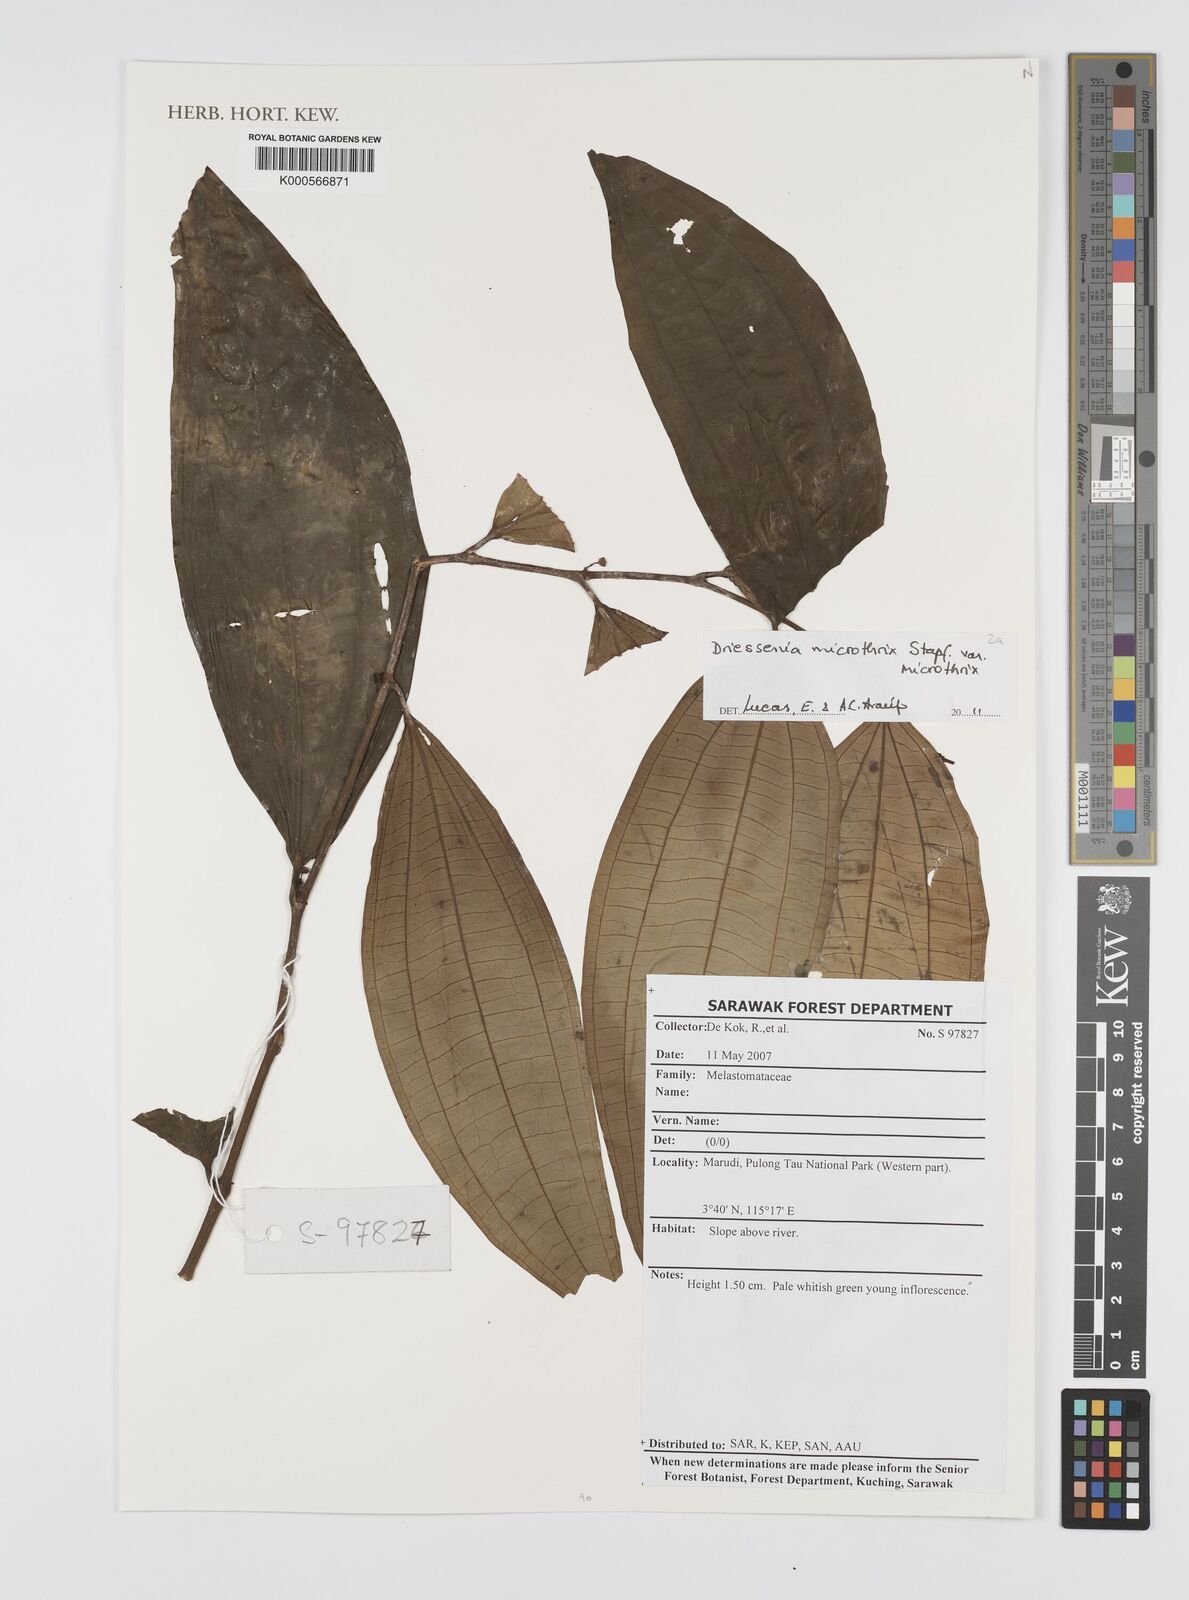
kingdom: Plantae
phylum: Tracheophyta
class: Magnoliopsida
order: Myrtales
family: Melastomataceae
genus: Driessenia
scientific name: Driessenia microthrix
